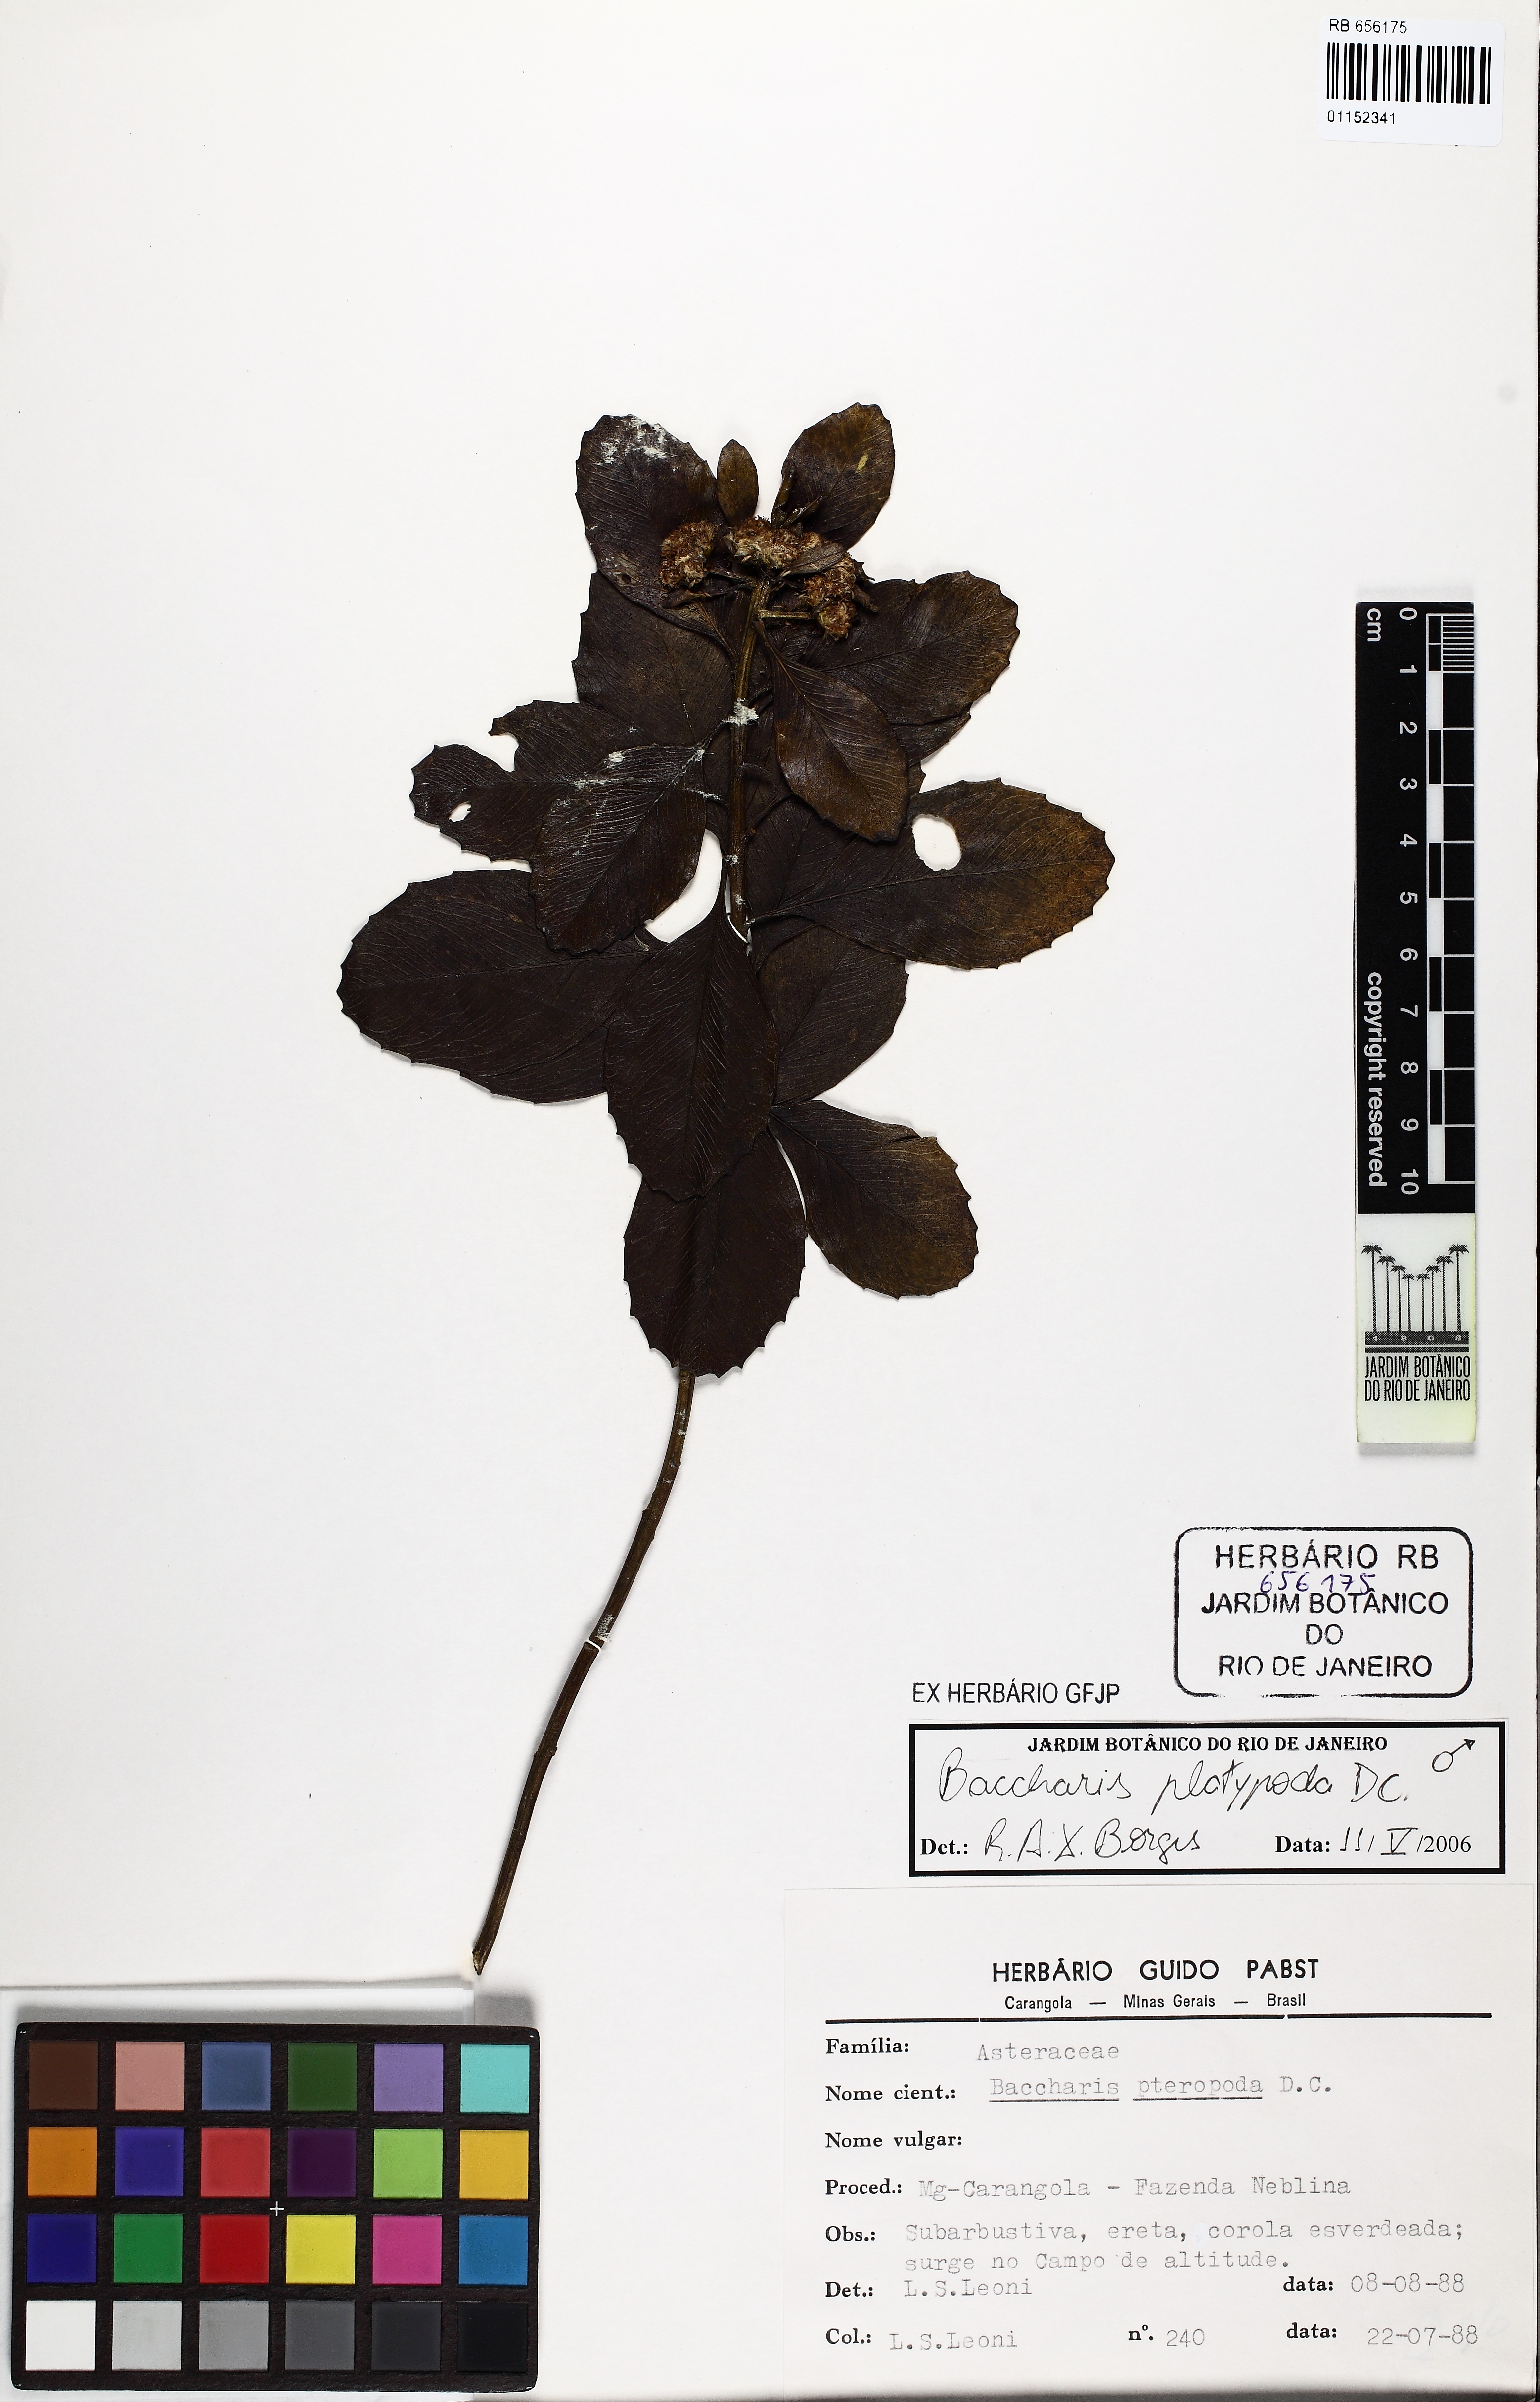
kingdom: Plantae
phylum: Tracheophyta
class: Magnoliopsida
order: Asterales
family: Asteraceae
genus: Baccharis
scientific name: Baccharis platypoda
